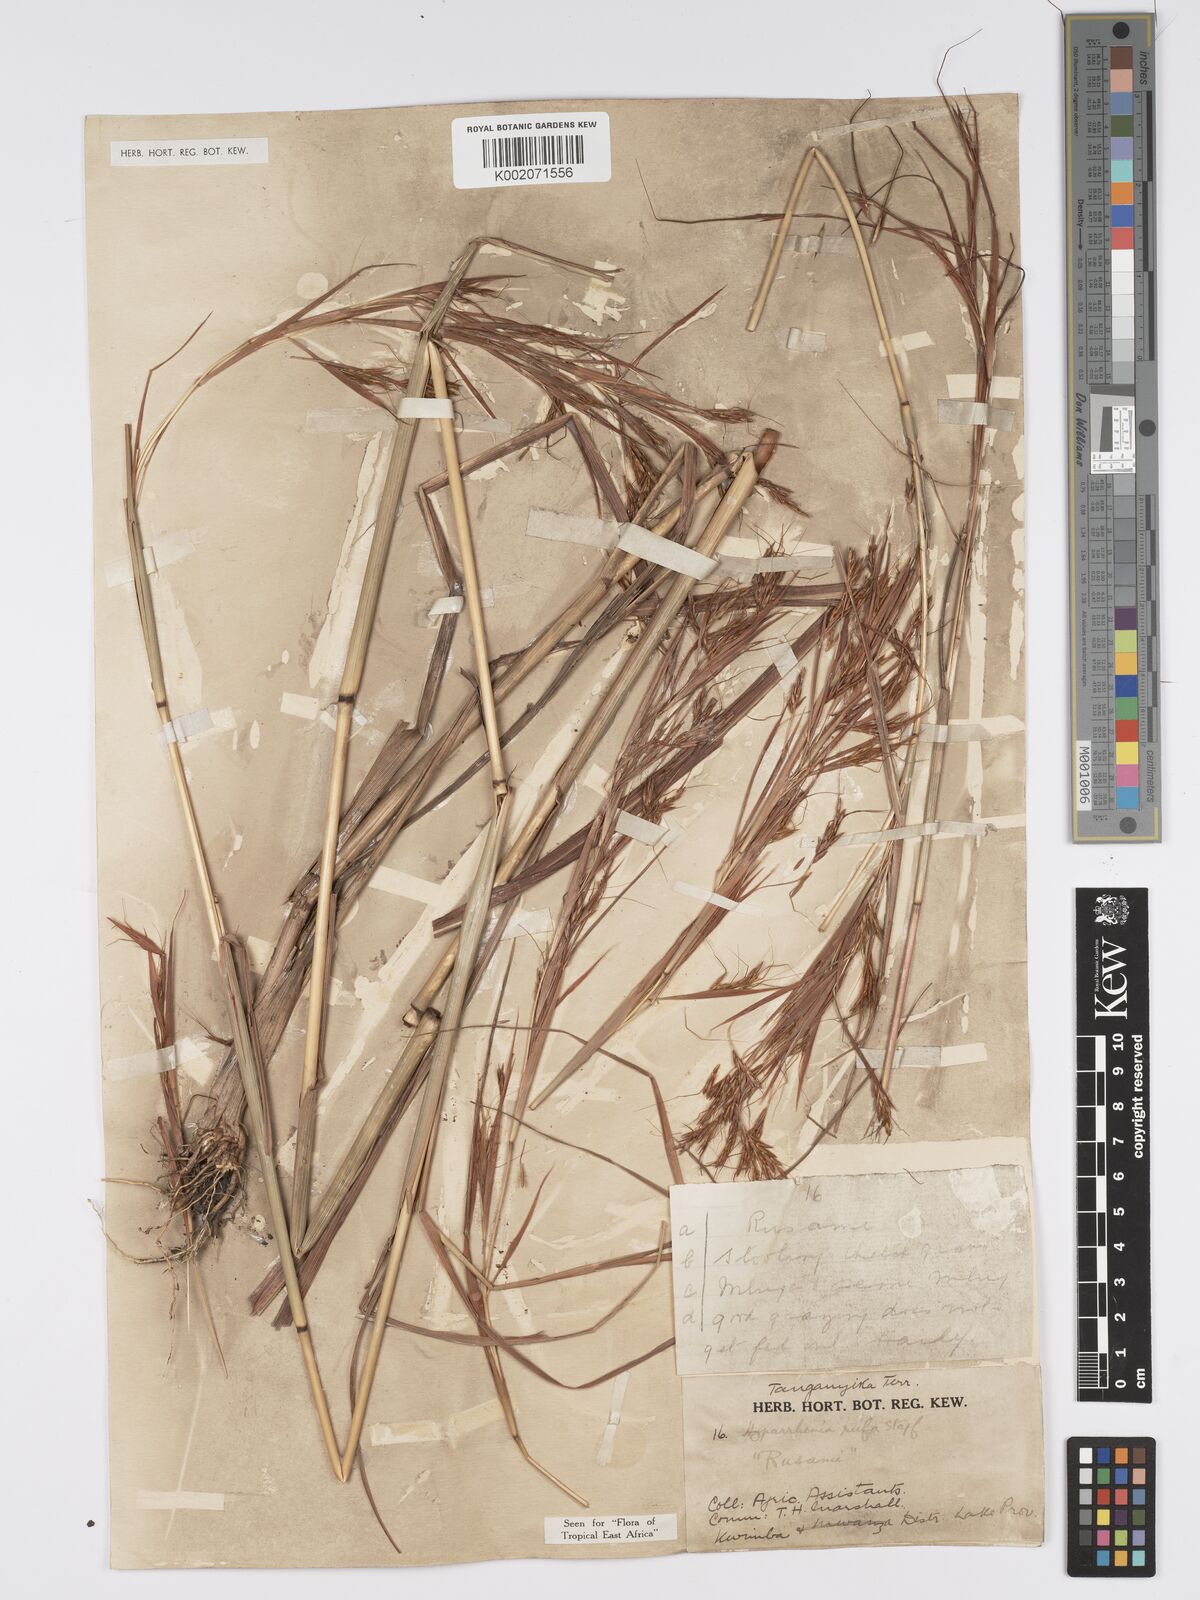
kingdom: Plantae
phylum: Tracheophyta
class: Liliopsida
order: Poales
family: Poaceae
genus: Hyparrhenia
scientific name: Hyparrhenia rufa
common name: Jaraguagrass
